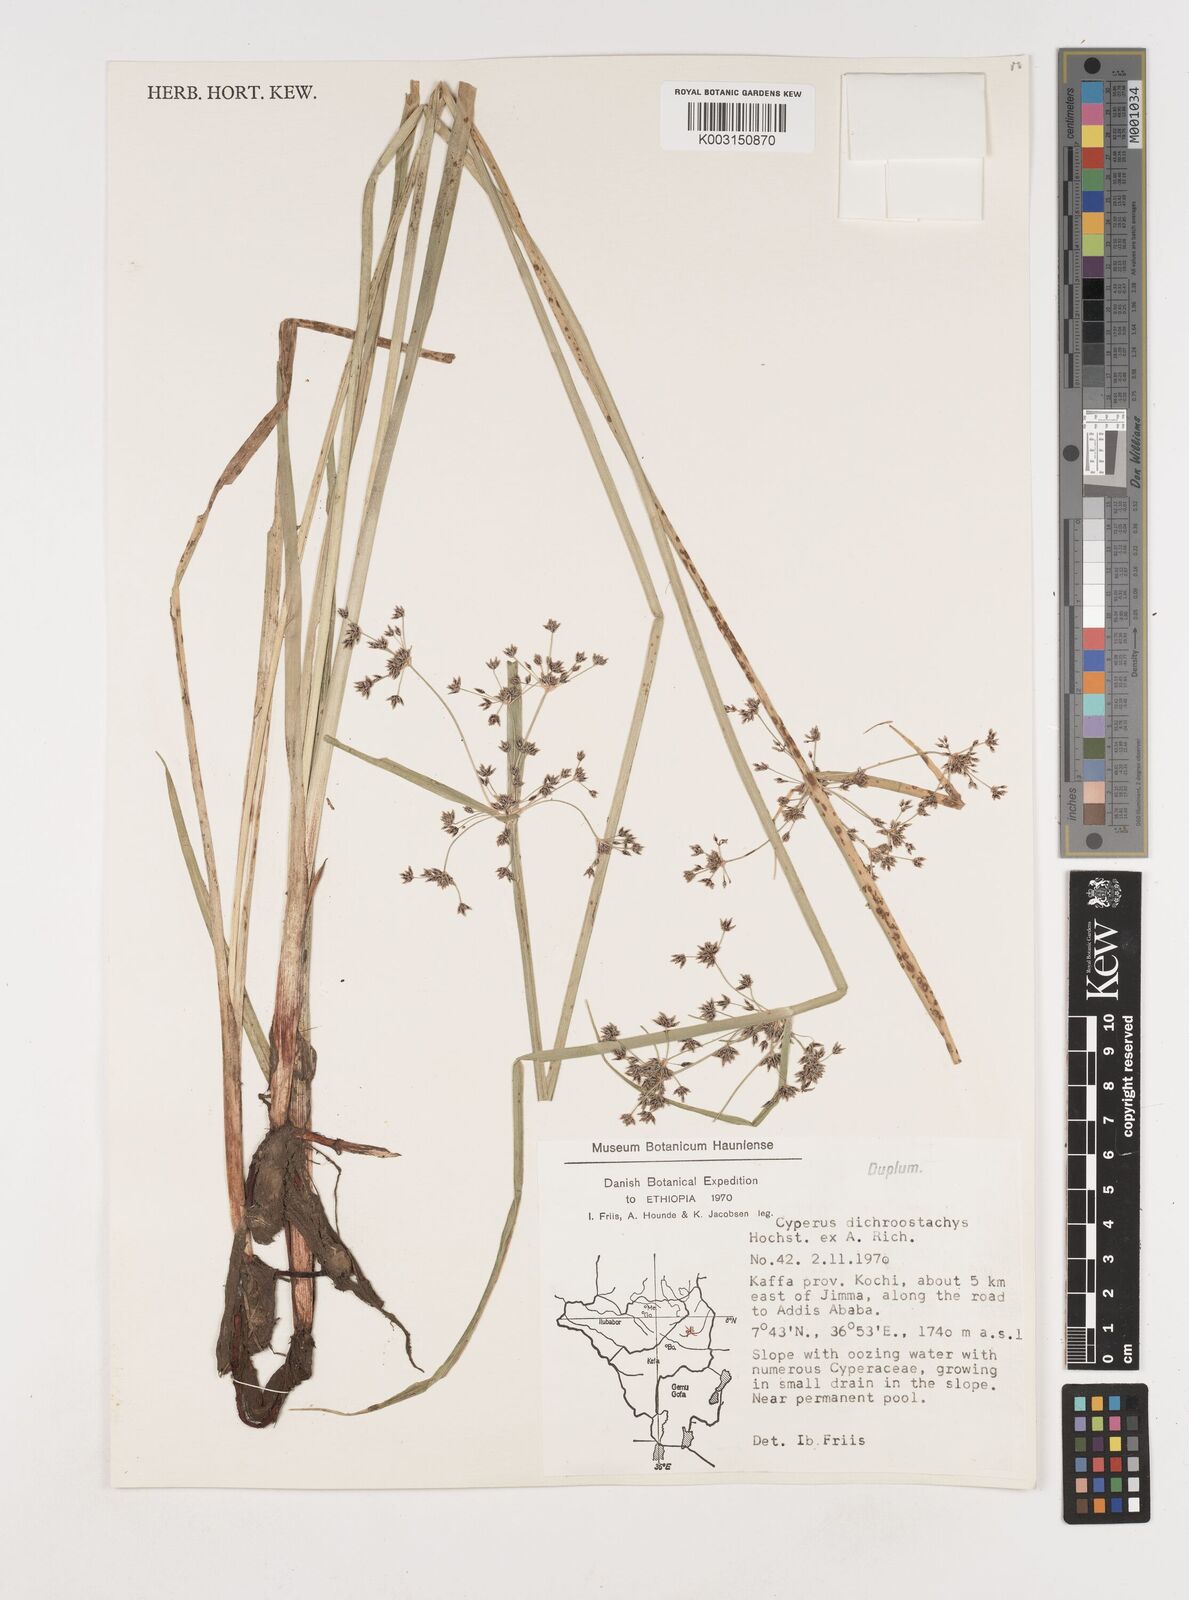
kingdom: Plantae
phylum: Tracheophyta
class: Liliopsida
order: Poales
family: Cyperaceae
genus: Cyperus
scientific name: Cyperus dichrostachyus
